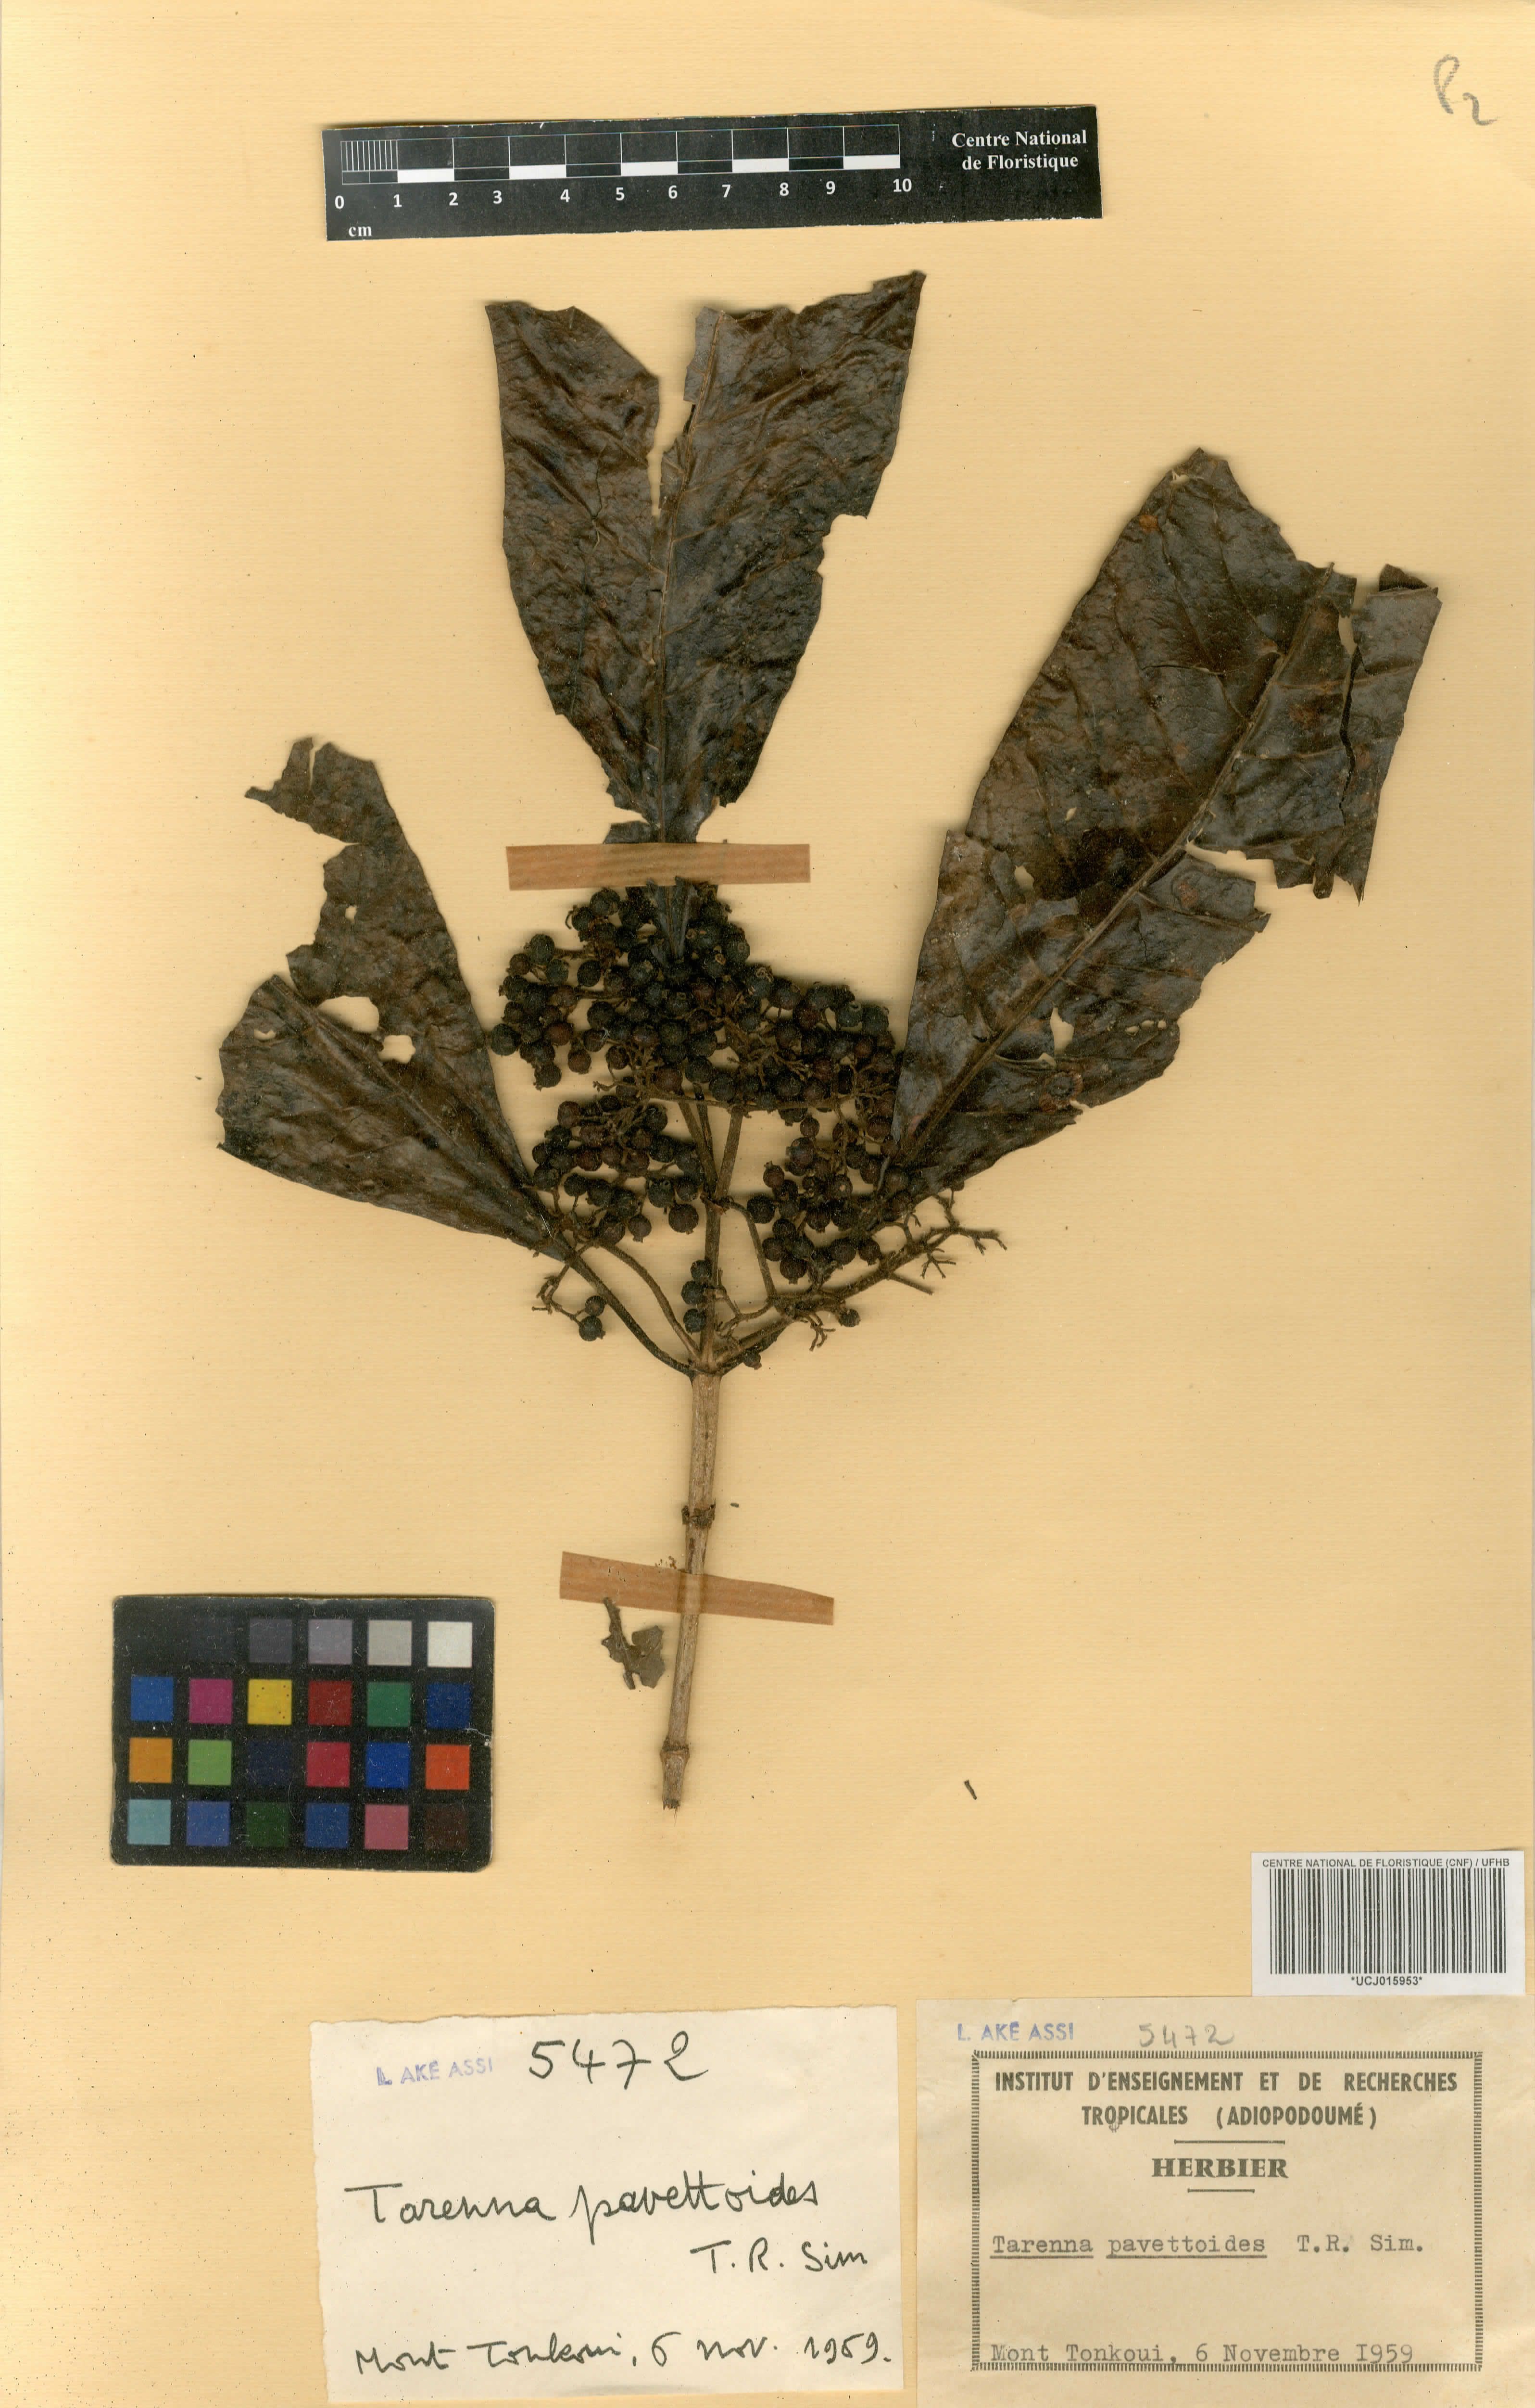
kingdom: Plantae
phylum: Tracheophyta
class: Magnoliopsida
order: Gentianales
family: Rubiaceae
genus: Tarenna
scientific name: Tarenna pavettoides
